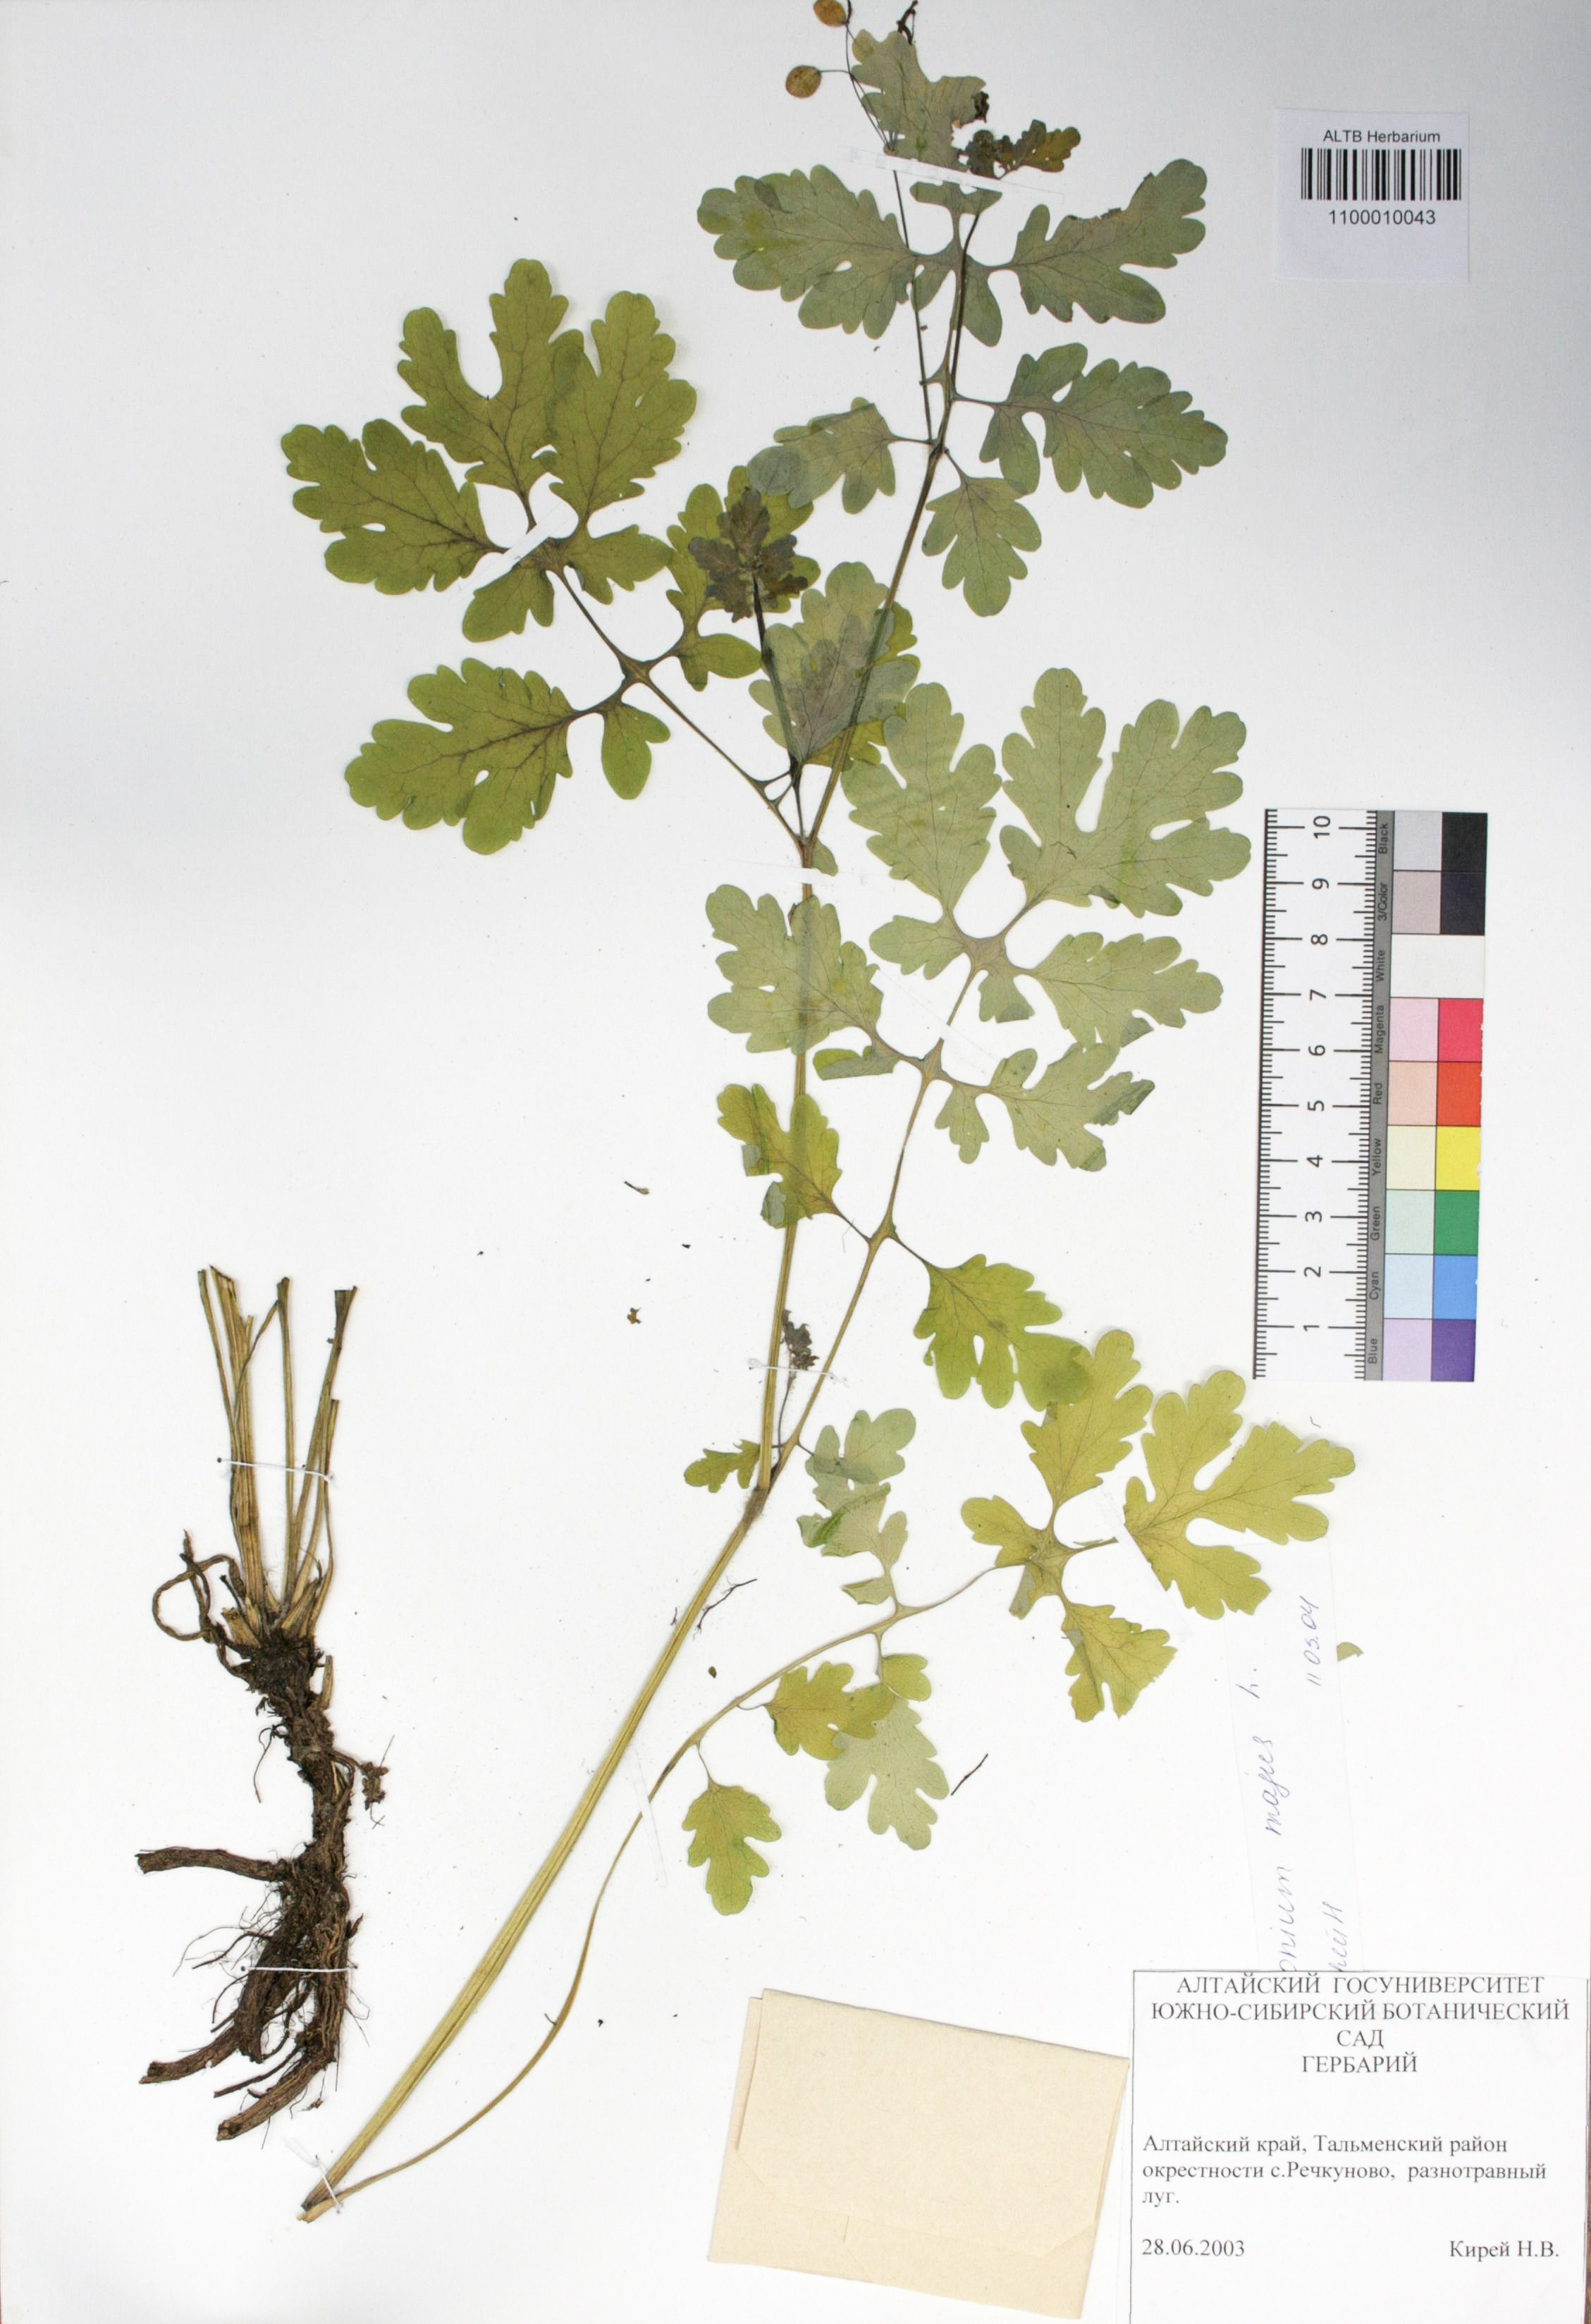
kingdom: Plantae
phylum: Tracheophyta
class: Magnoliopsida
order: Ranunculales
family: Papaveraceae
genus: Chelidonium
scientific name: Chelidonium majus
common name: Greater celandine
